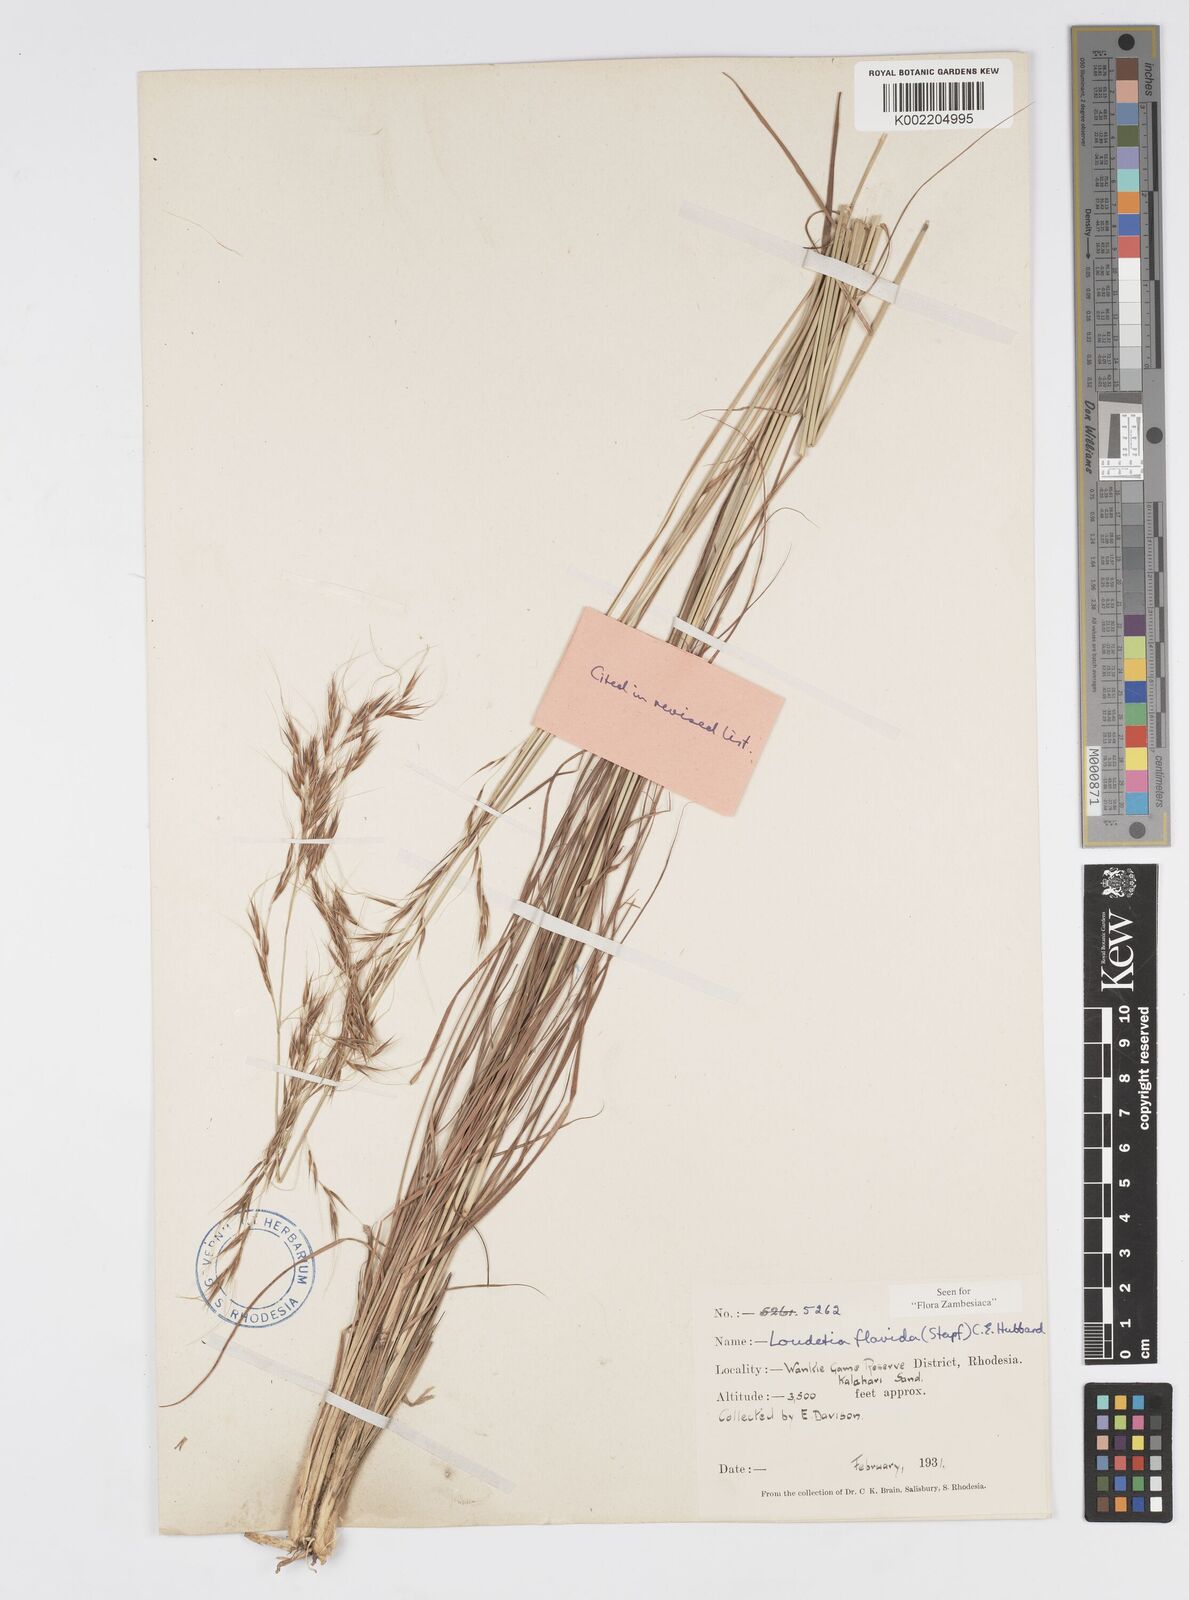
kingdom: Plantae
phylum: Tracheophyta
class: Liliopsida
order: Poales
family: Poaceae
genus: Loudetia
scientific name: Loudetia flavida
